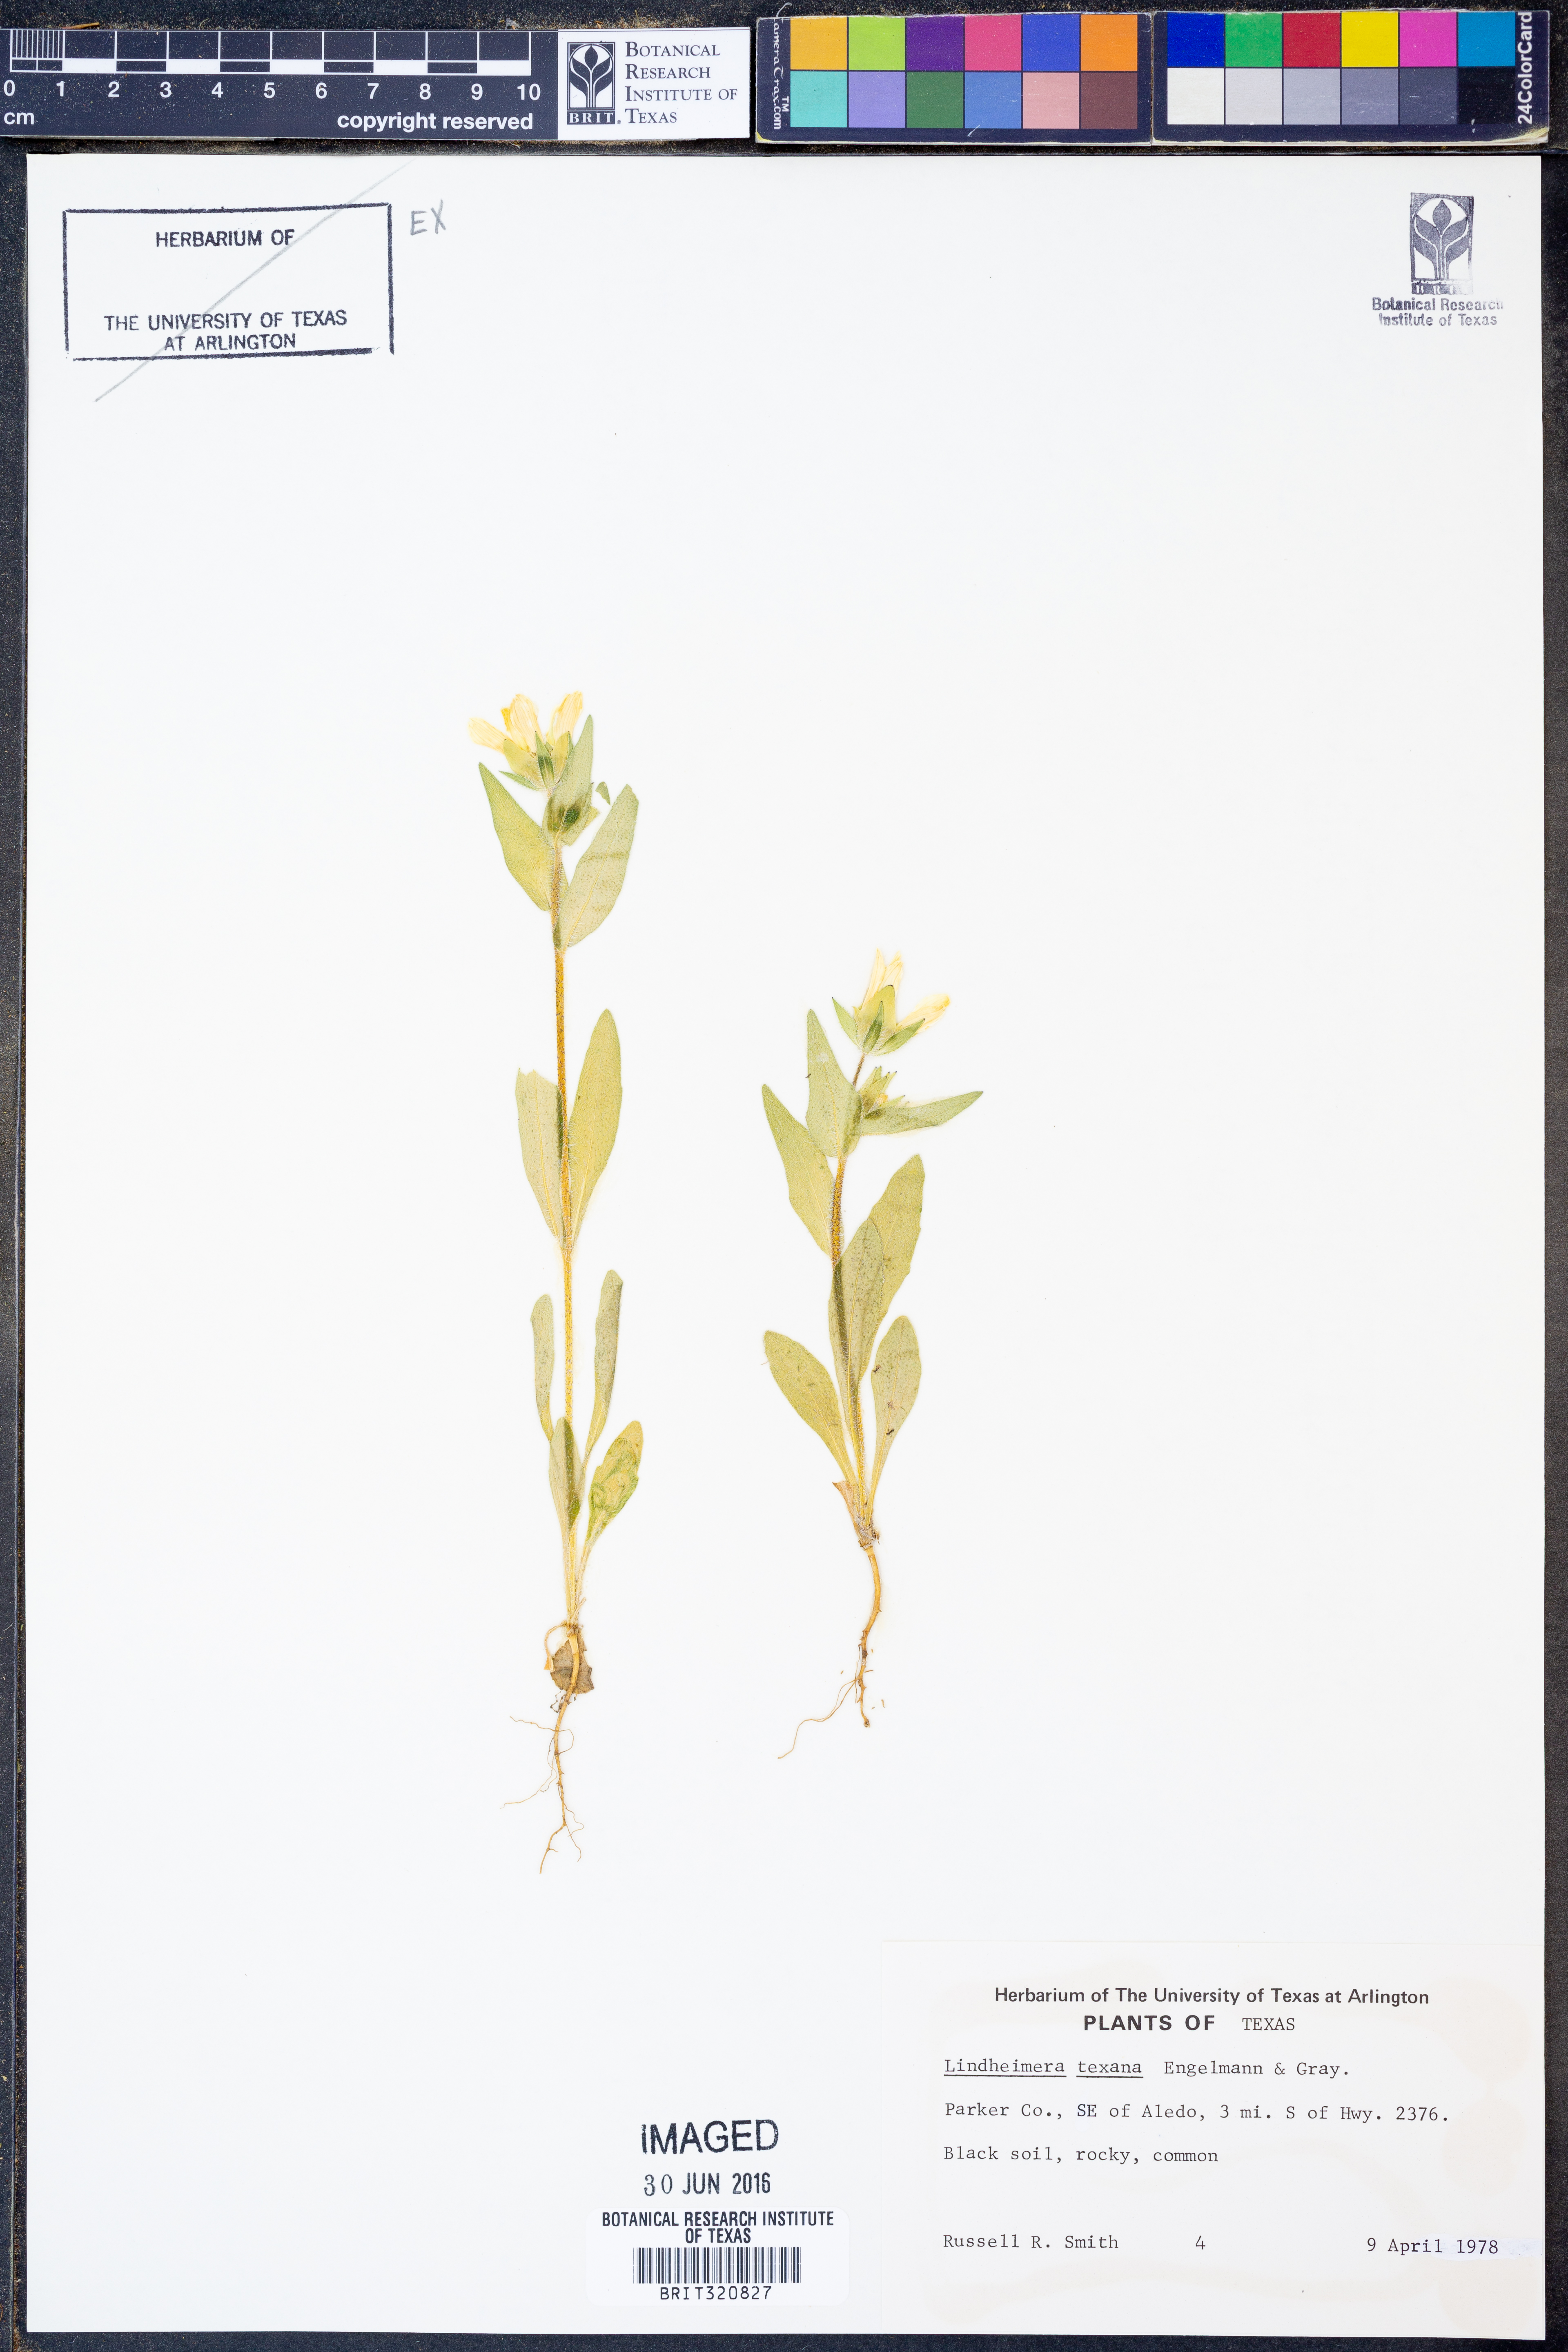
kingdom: Plantae
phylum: Tracheophyta
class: Magnoliopsida
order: Asterales
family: Asteraceae
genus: Lindheimera
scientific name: Lindheimera texana
